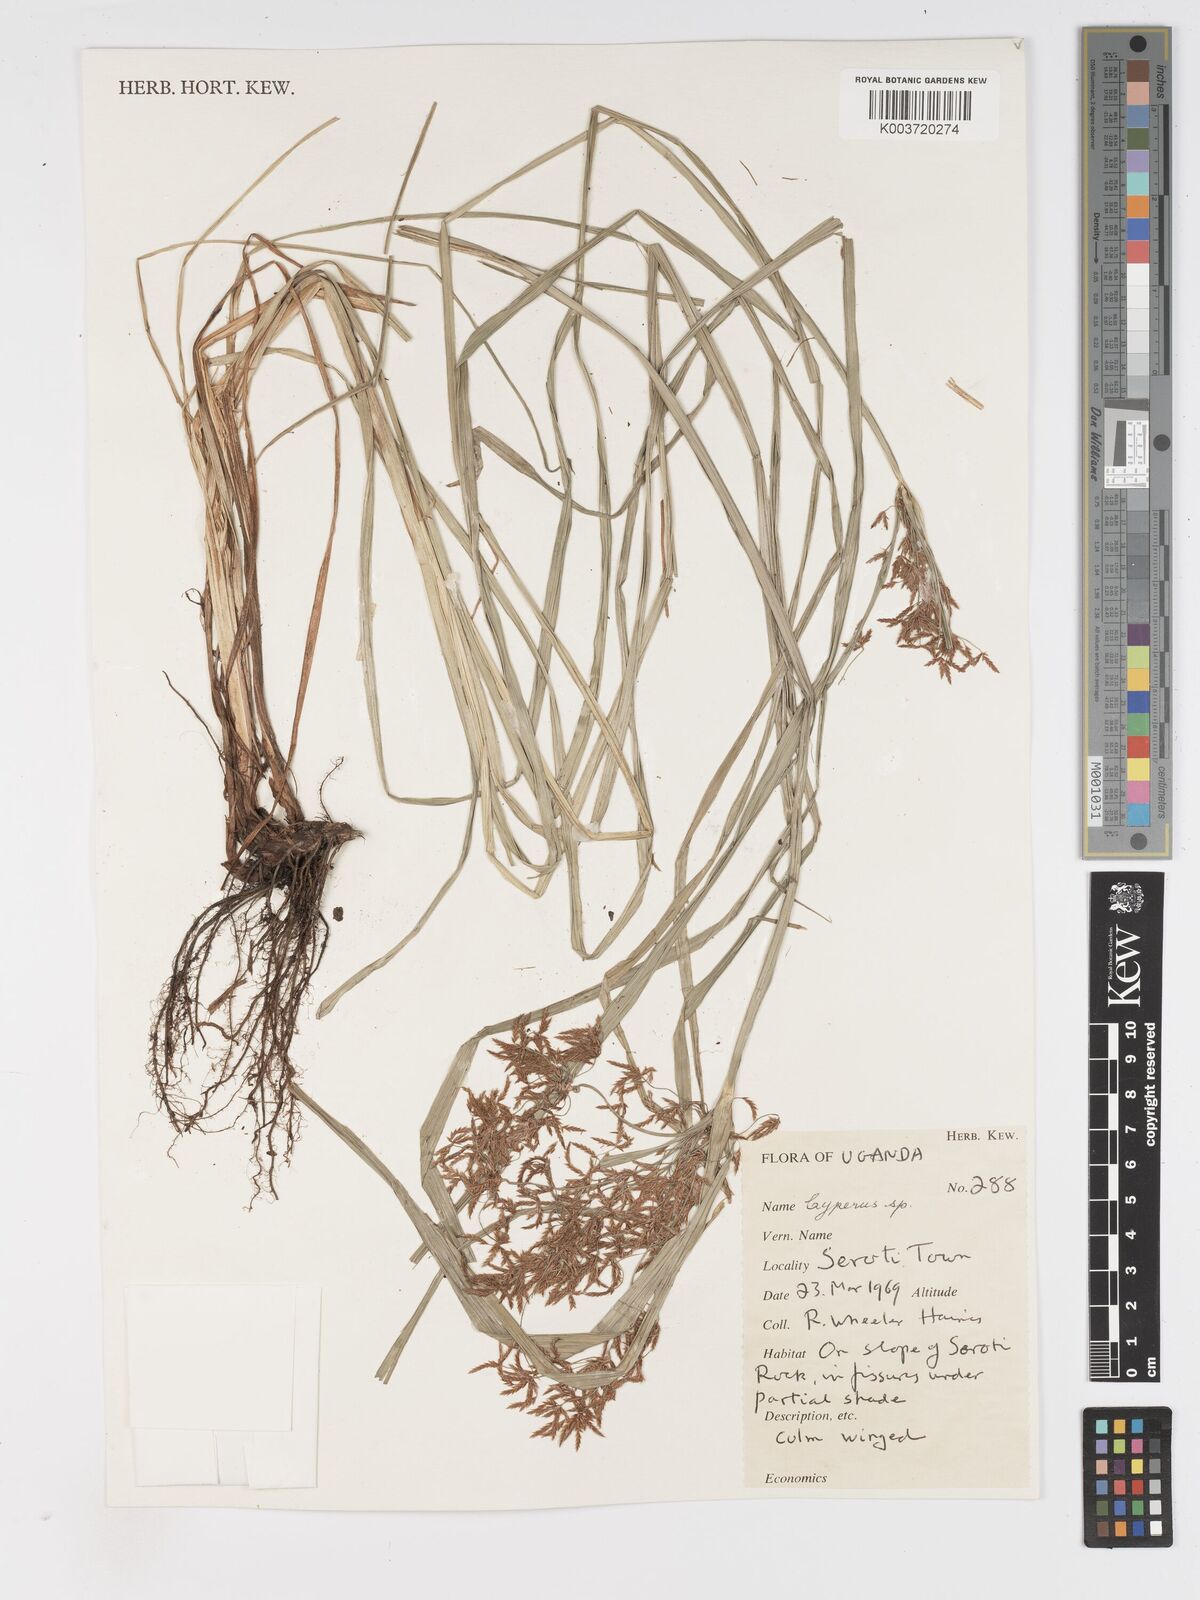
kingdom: Plantae
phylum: Tracheophyta
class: Liliopsida
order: Poales
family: Cyperaceae
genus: Cyperus
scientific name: Cyperus
